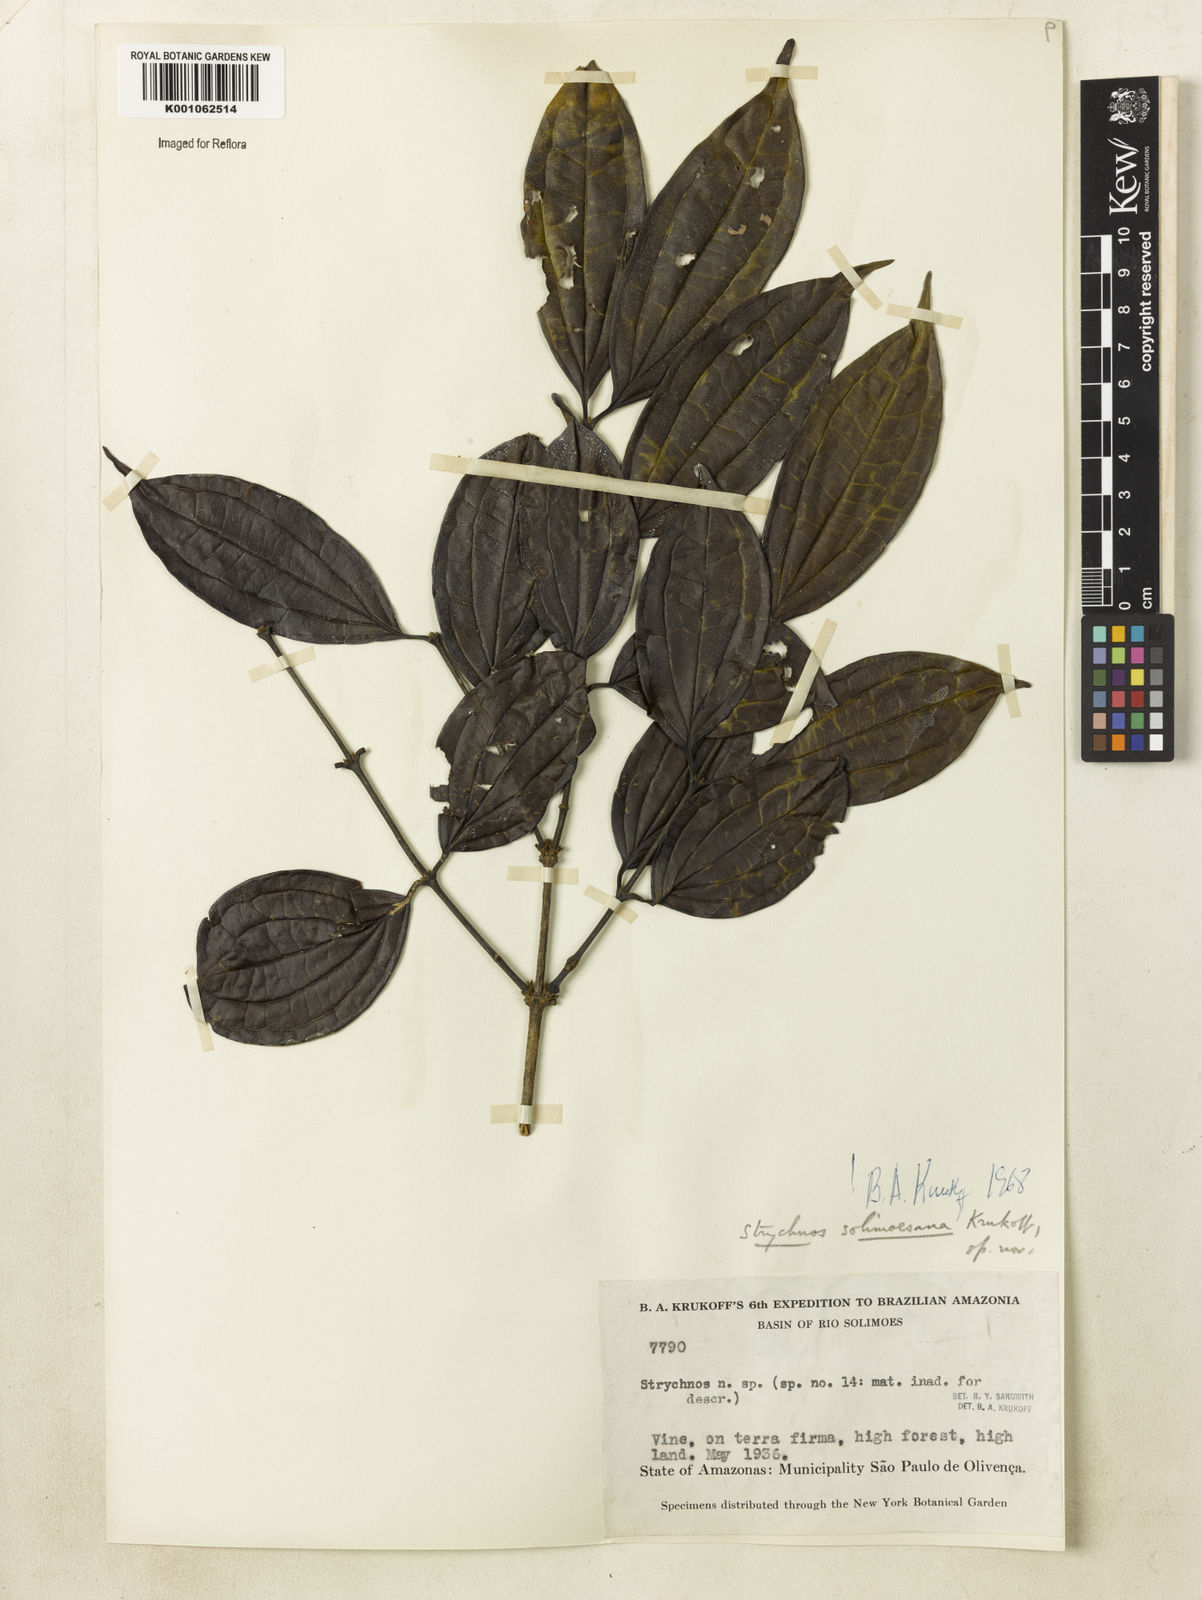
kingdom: Plantae
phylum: Tracheophyta
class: Magnoliopsida
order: Gentianales
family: Loganiaceae
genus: Strychnos
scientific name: Strychnos solimoesana
